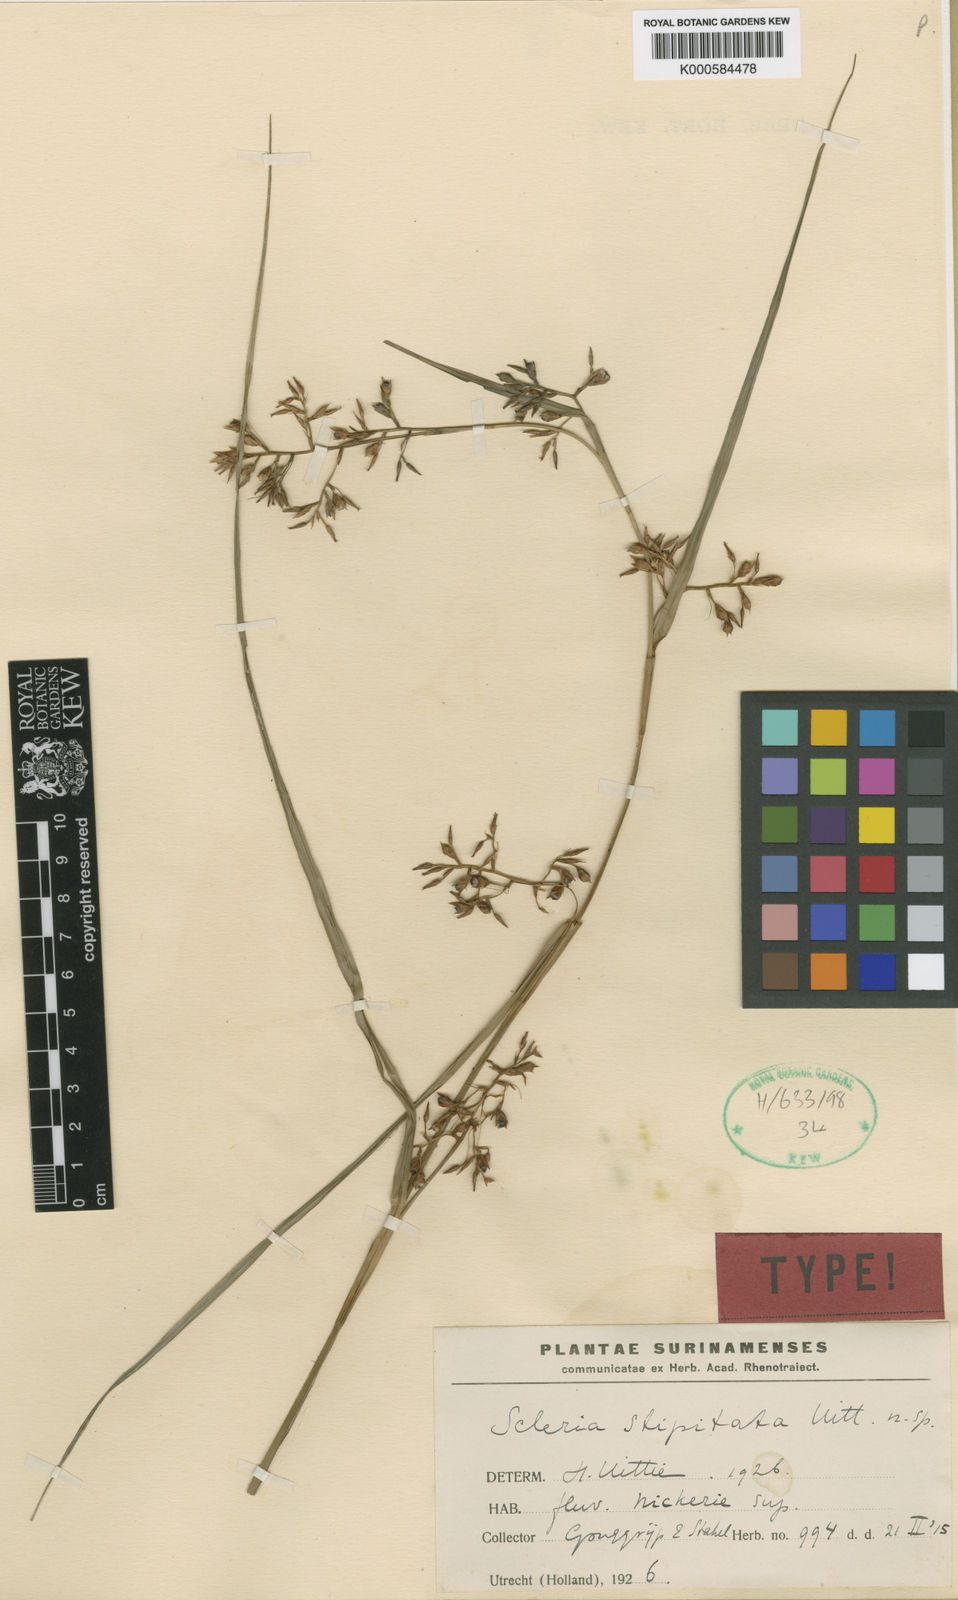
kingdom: Plantae
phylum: Tracheophyta
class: Liliopsida
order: Poales
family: Cyperaceae
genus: Scleria
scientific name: Scleria stipitata
